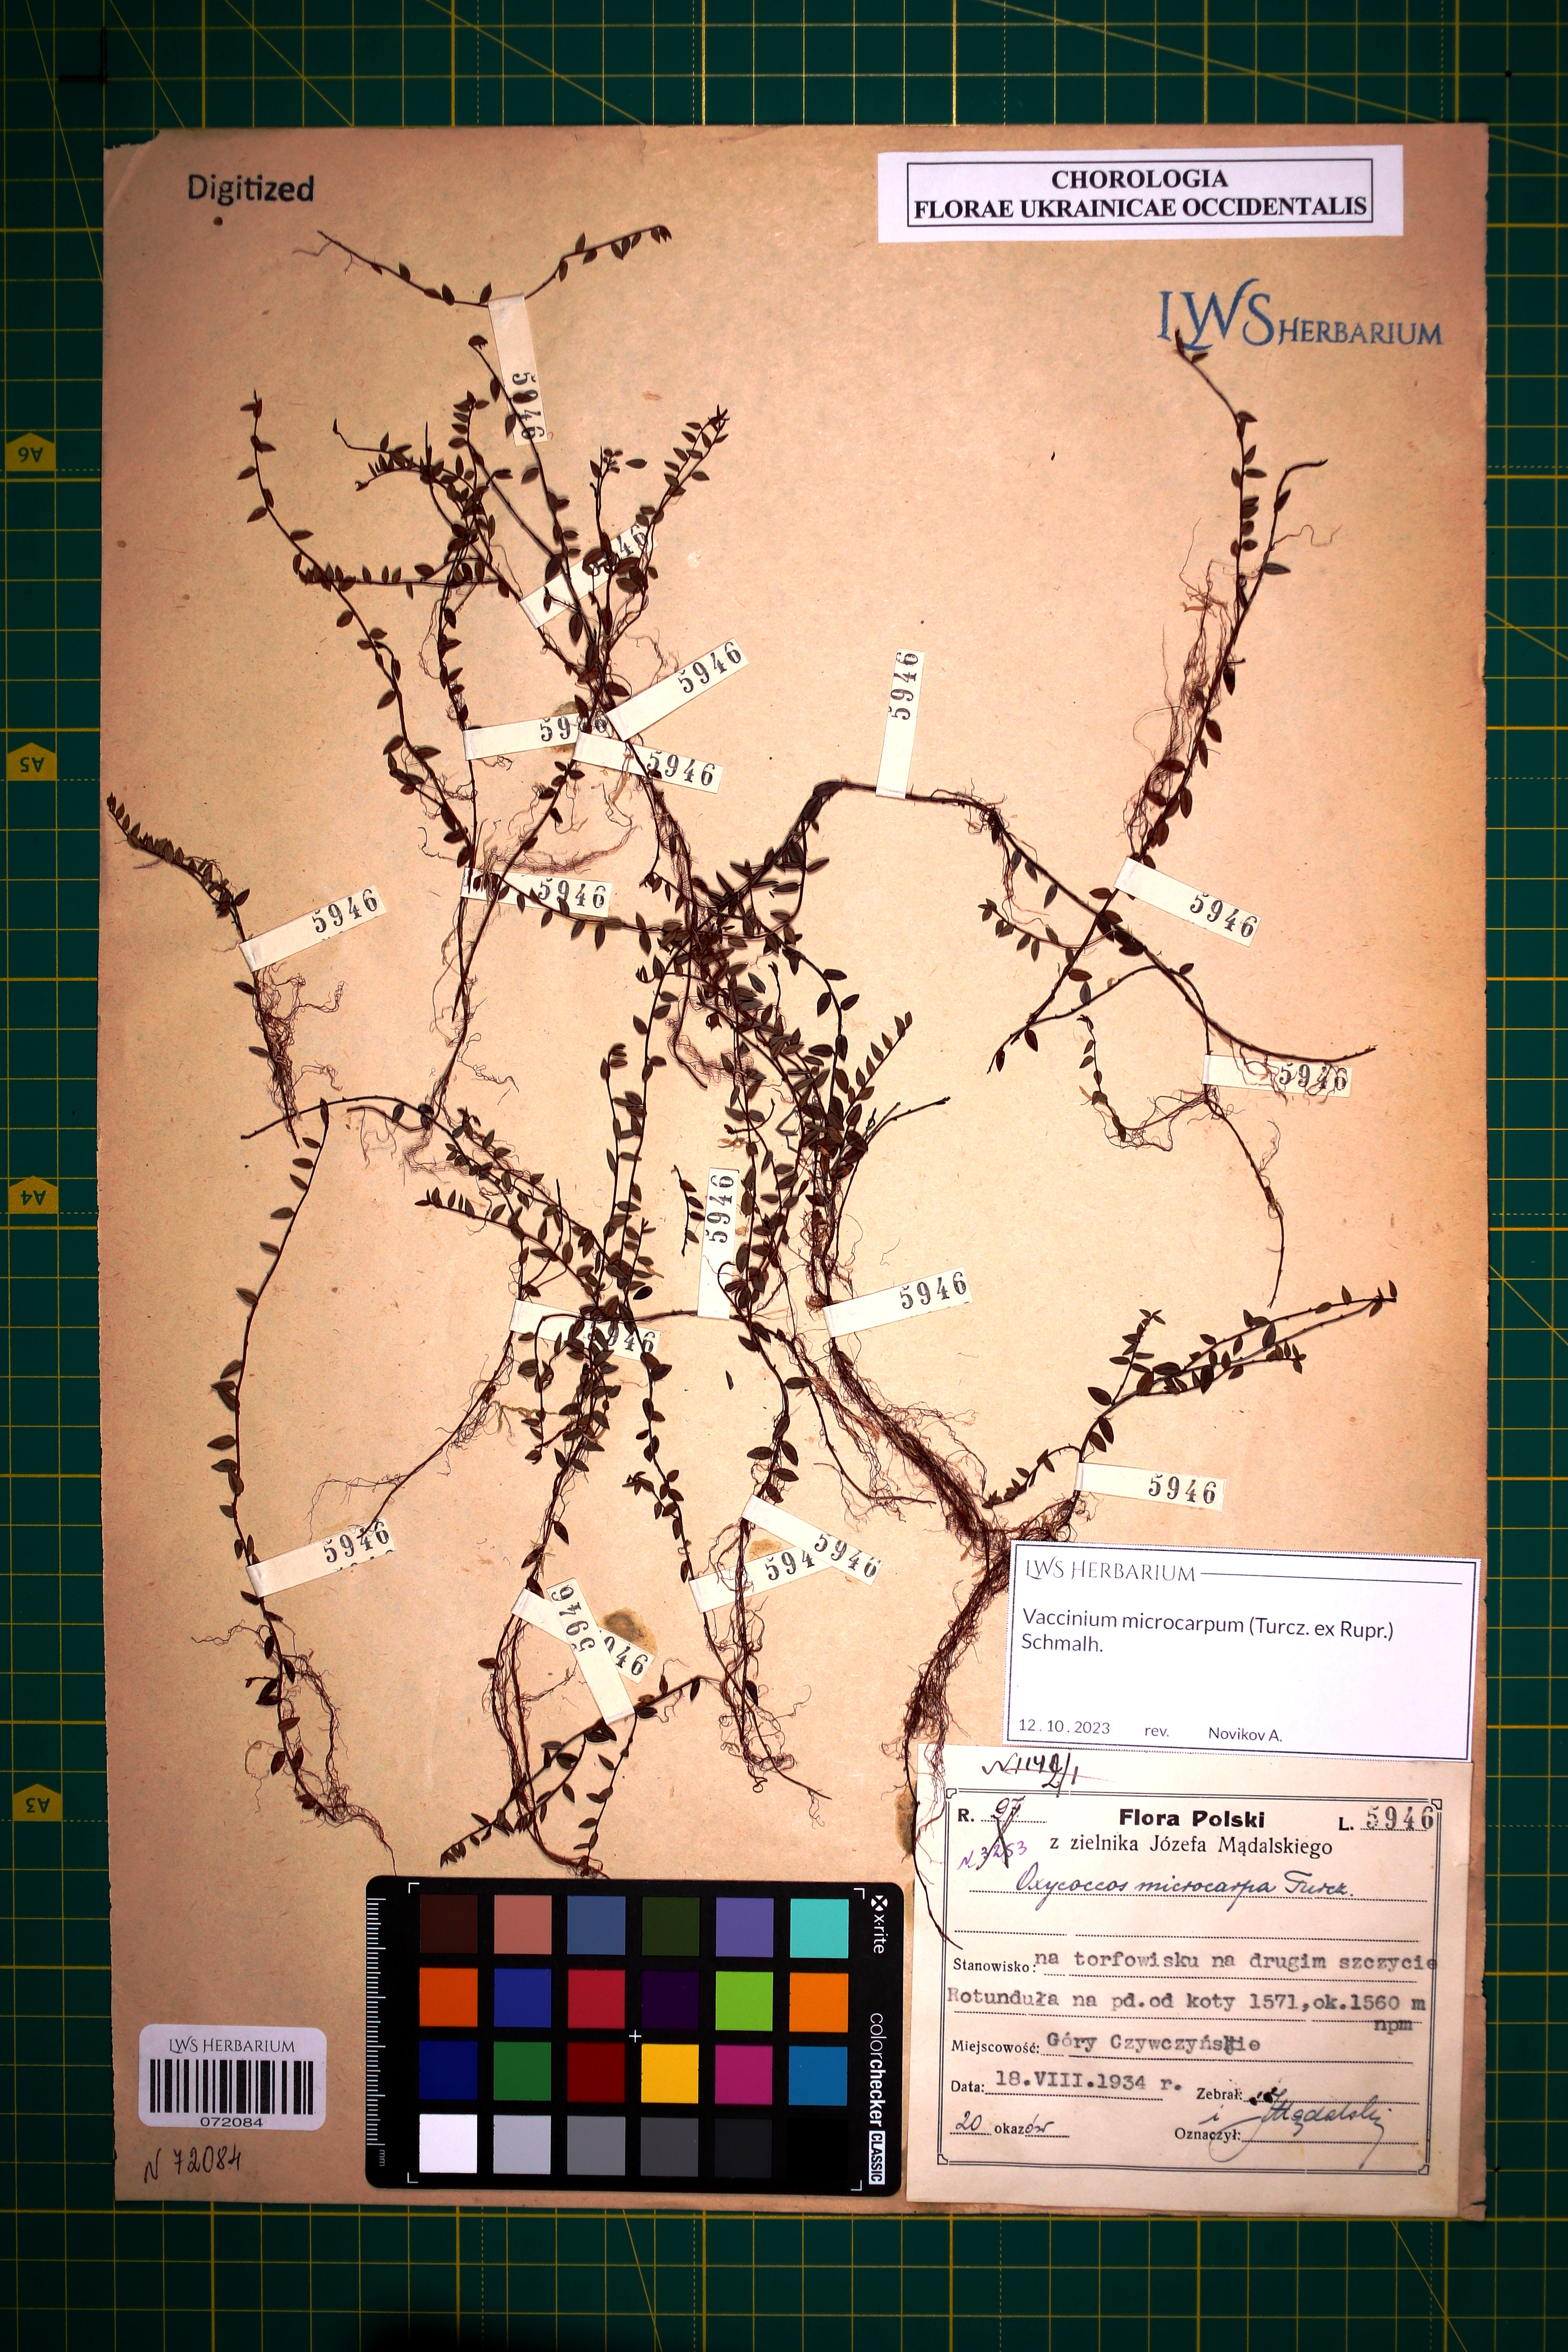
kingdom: Plantae
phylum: Tracheophyta
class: Magnoliopsida
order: Ericales
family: Ericaceae
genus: Vaccinium
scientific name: Vaccinium microcarpum
